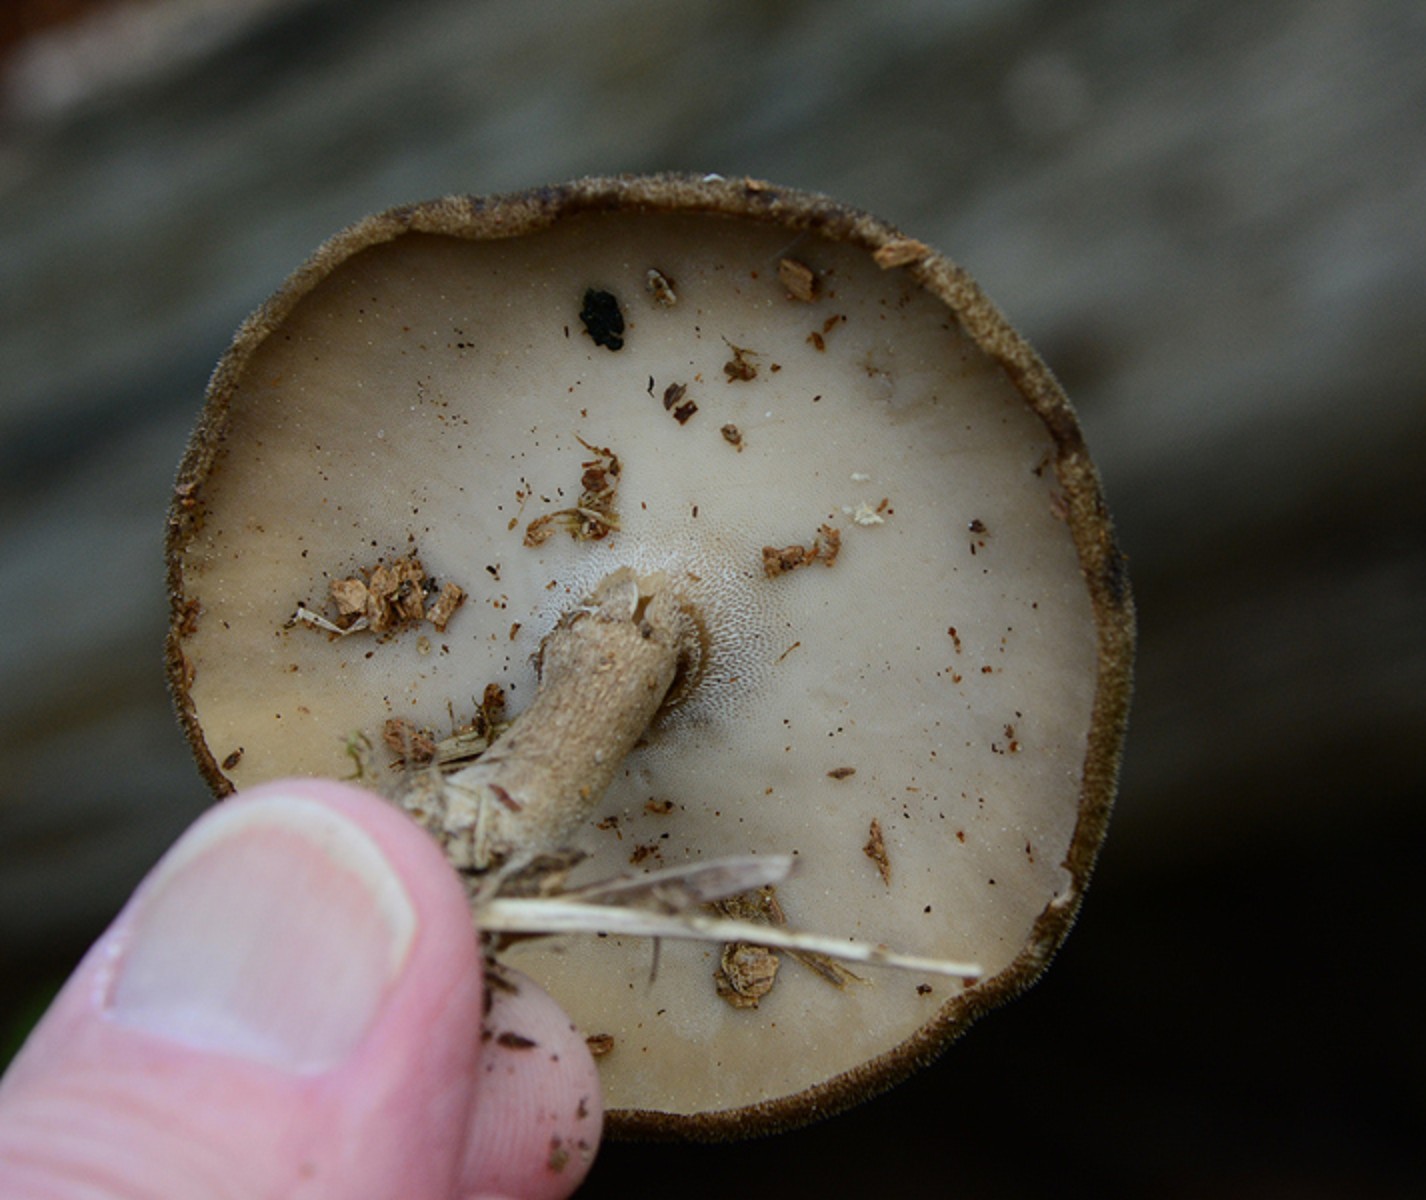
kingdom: Fungi
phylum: Basidiomycota
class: Agaricomycetes
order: Polyporales
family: Polyporaceae
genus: Lentinus
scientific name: Lentinus substrictus
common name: forårs-stilkporesvamp
